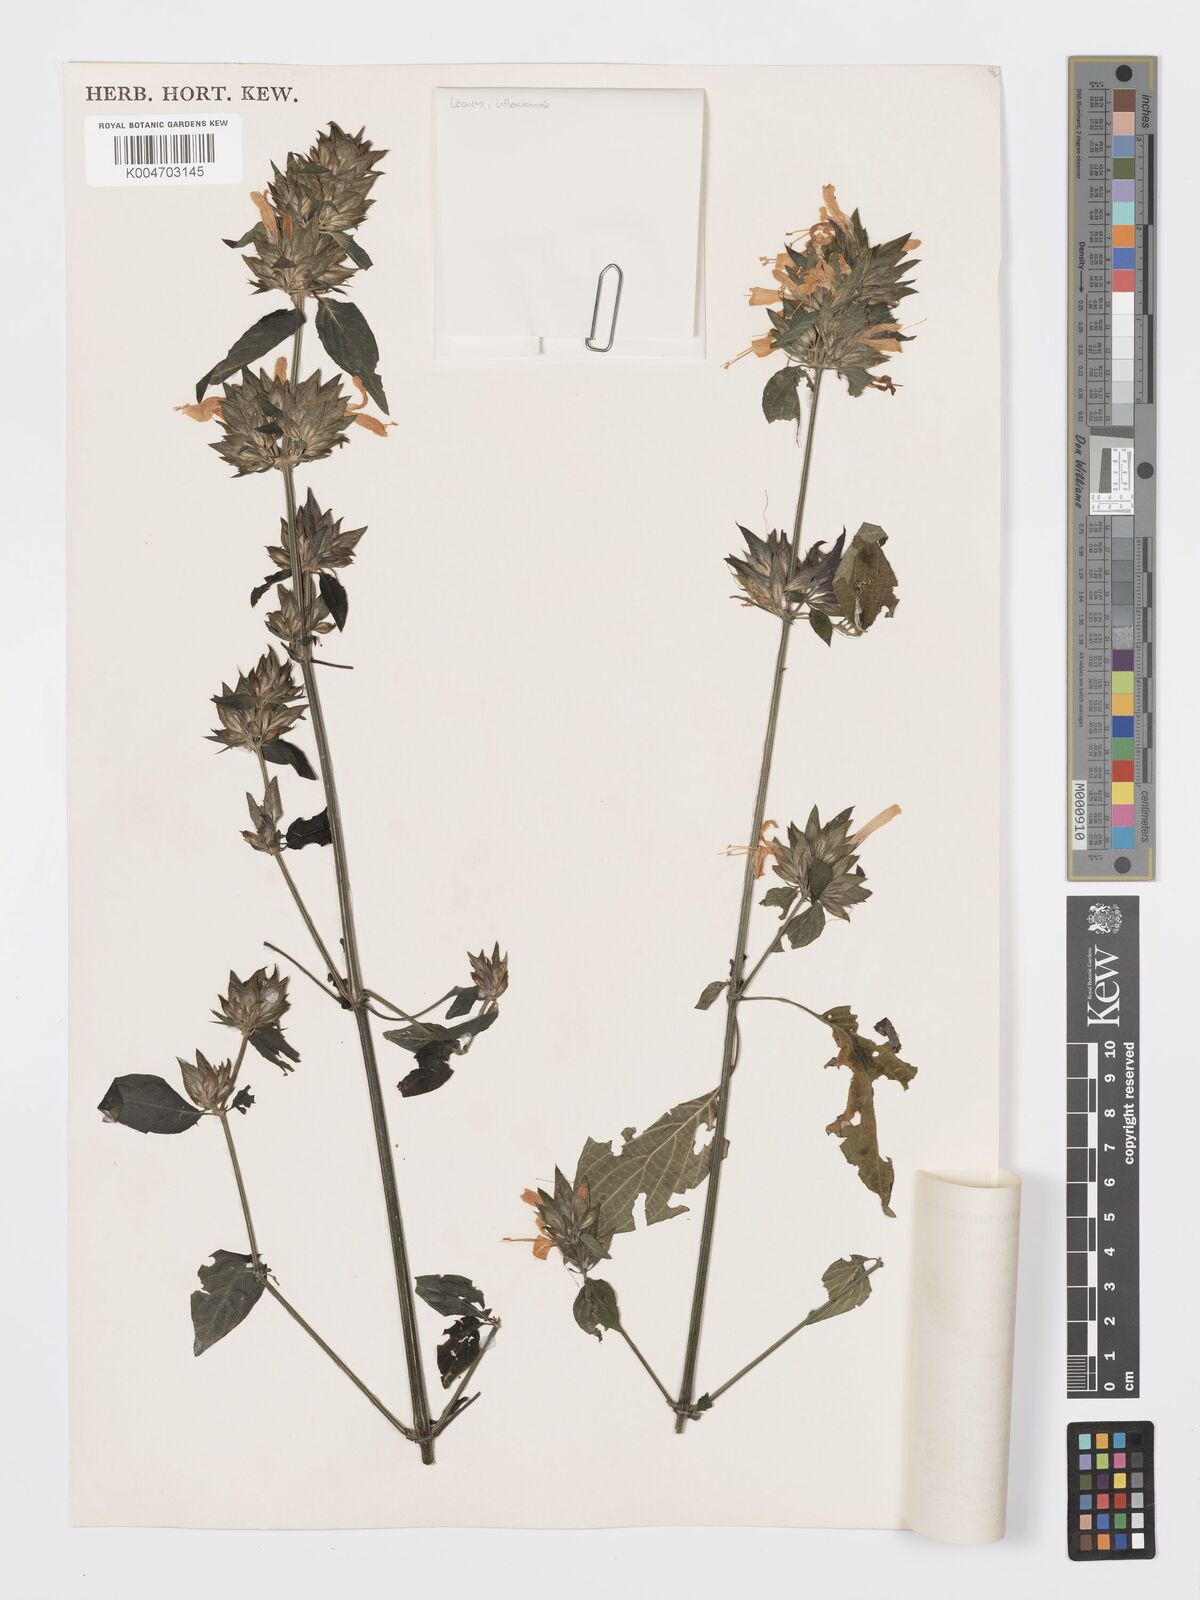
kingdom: Plantae
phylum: Tracheophyta
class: Magnoliopsida
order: Lamiales
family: Acanthaceae
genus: Dicliptera
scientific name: Dicliptera clinopodia
